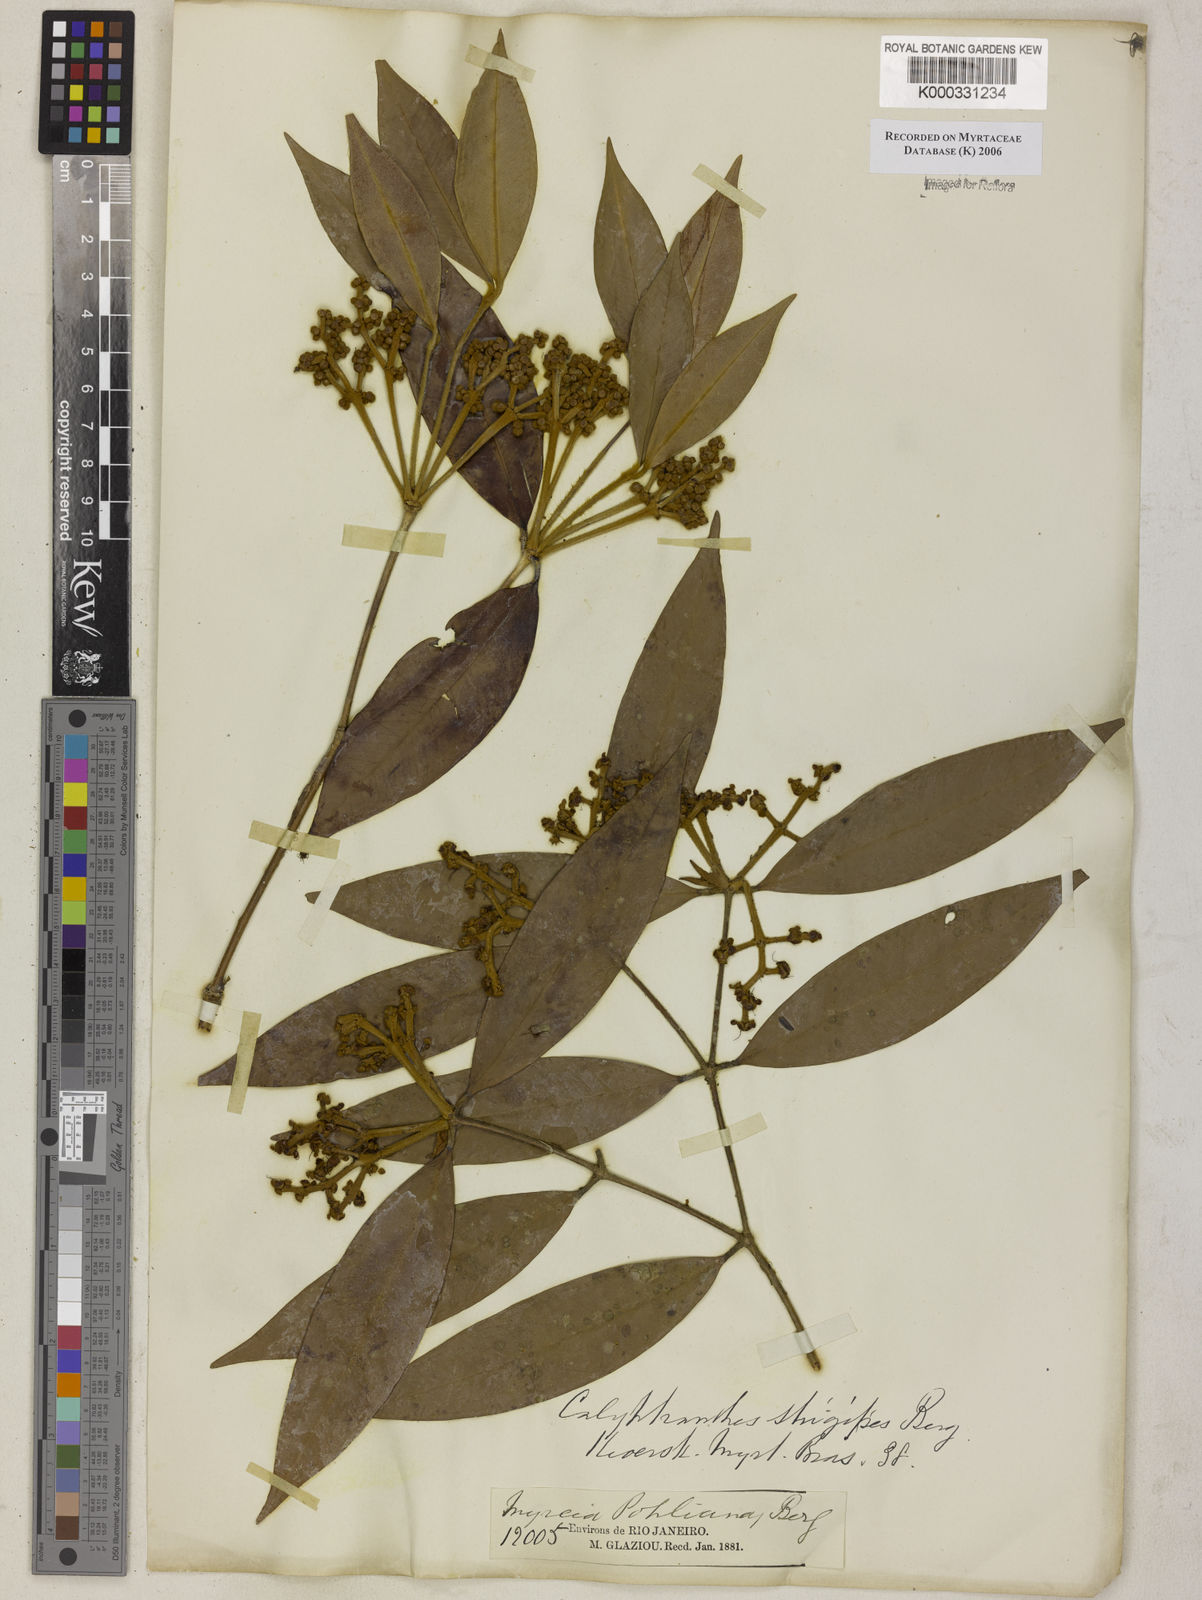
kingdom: Plantae
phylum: Tracheophyta
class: Magnoliopsida
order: Myrtales
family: Myrtaceae
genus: Myrcia
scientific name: Myrcia strigosa
